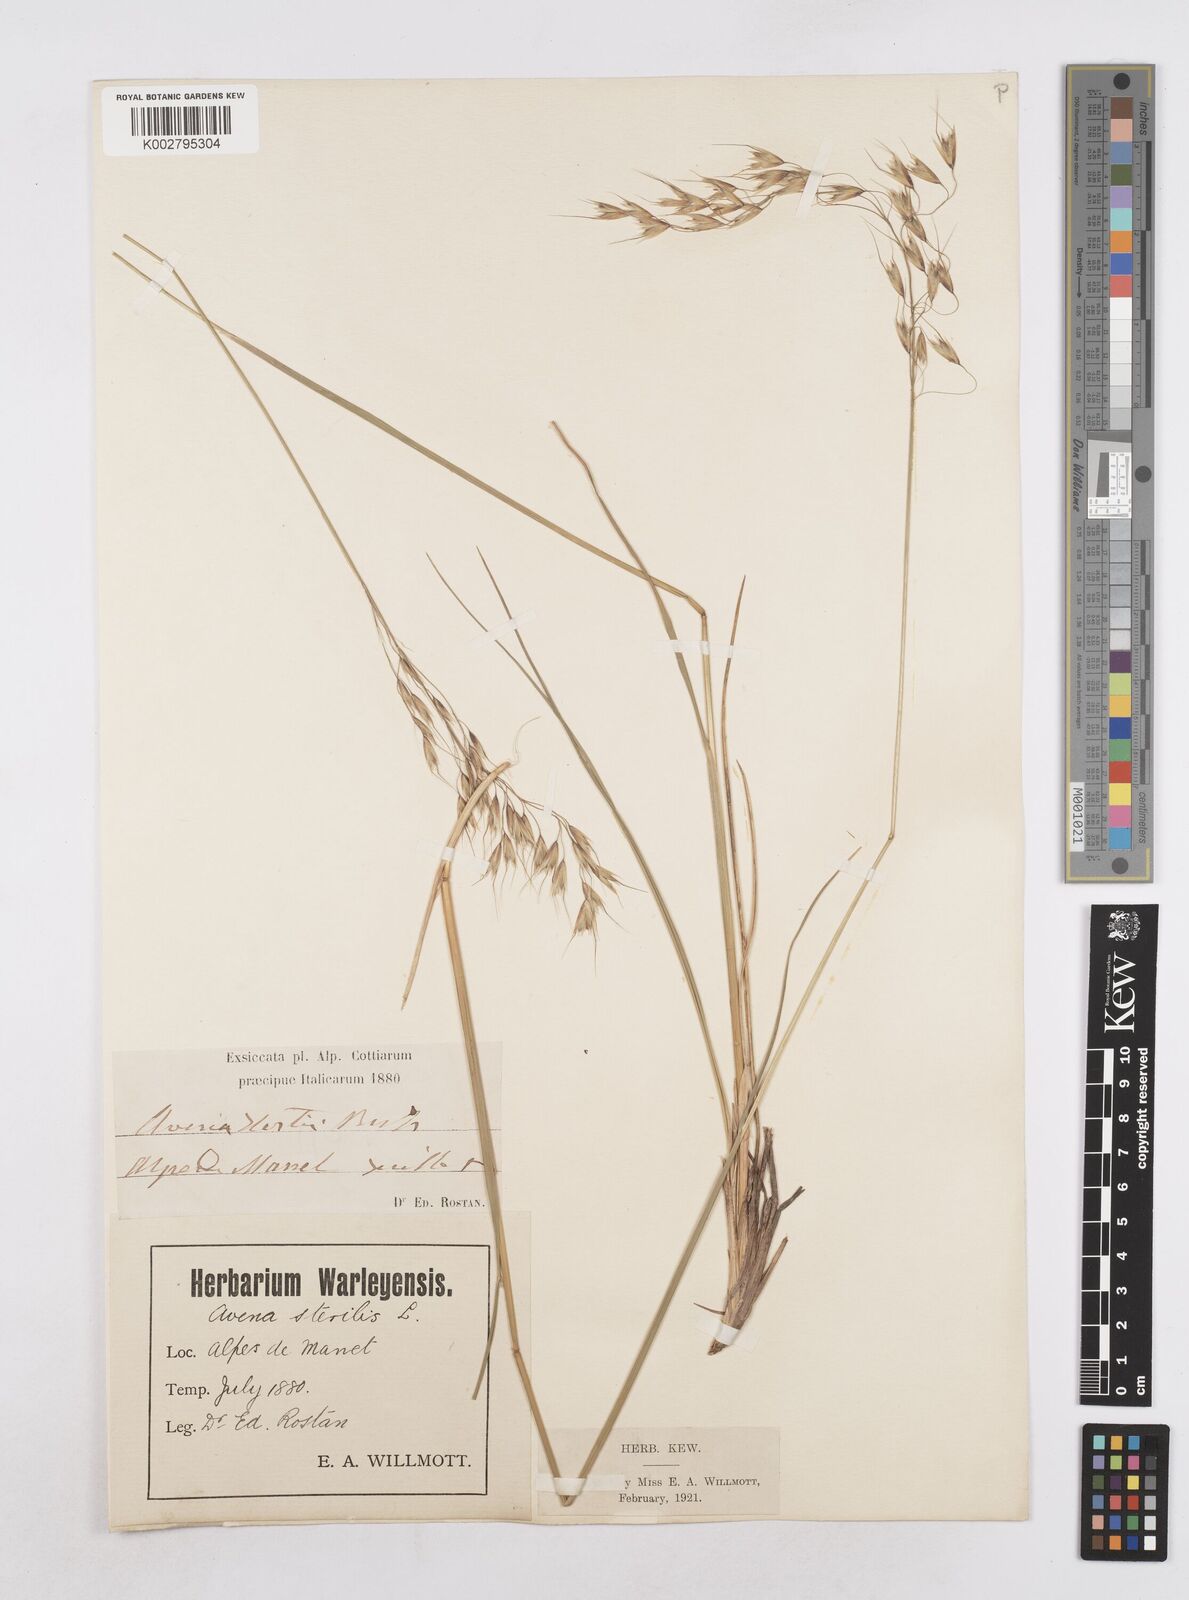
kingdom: Plantae
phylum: Tracheophyta
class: Liliopsida
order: Poales
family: Poaceae
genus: Helictotrichon
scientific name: Helictotrichon
